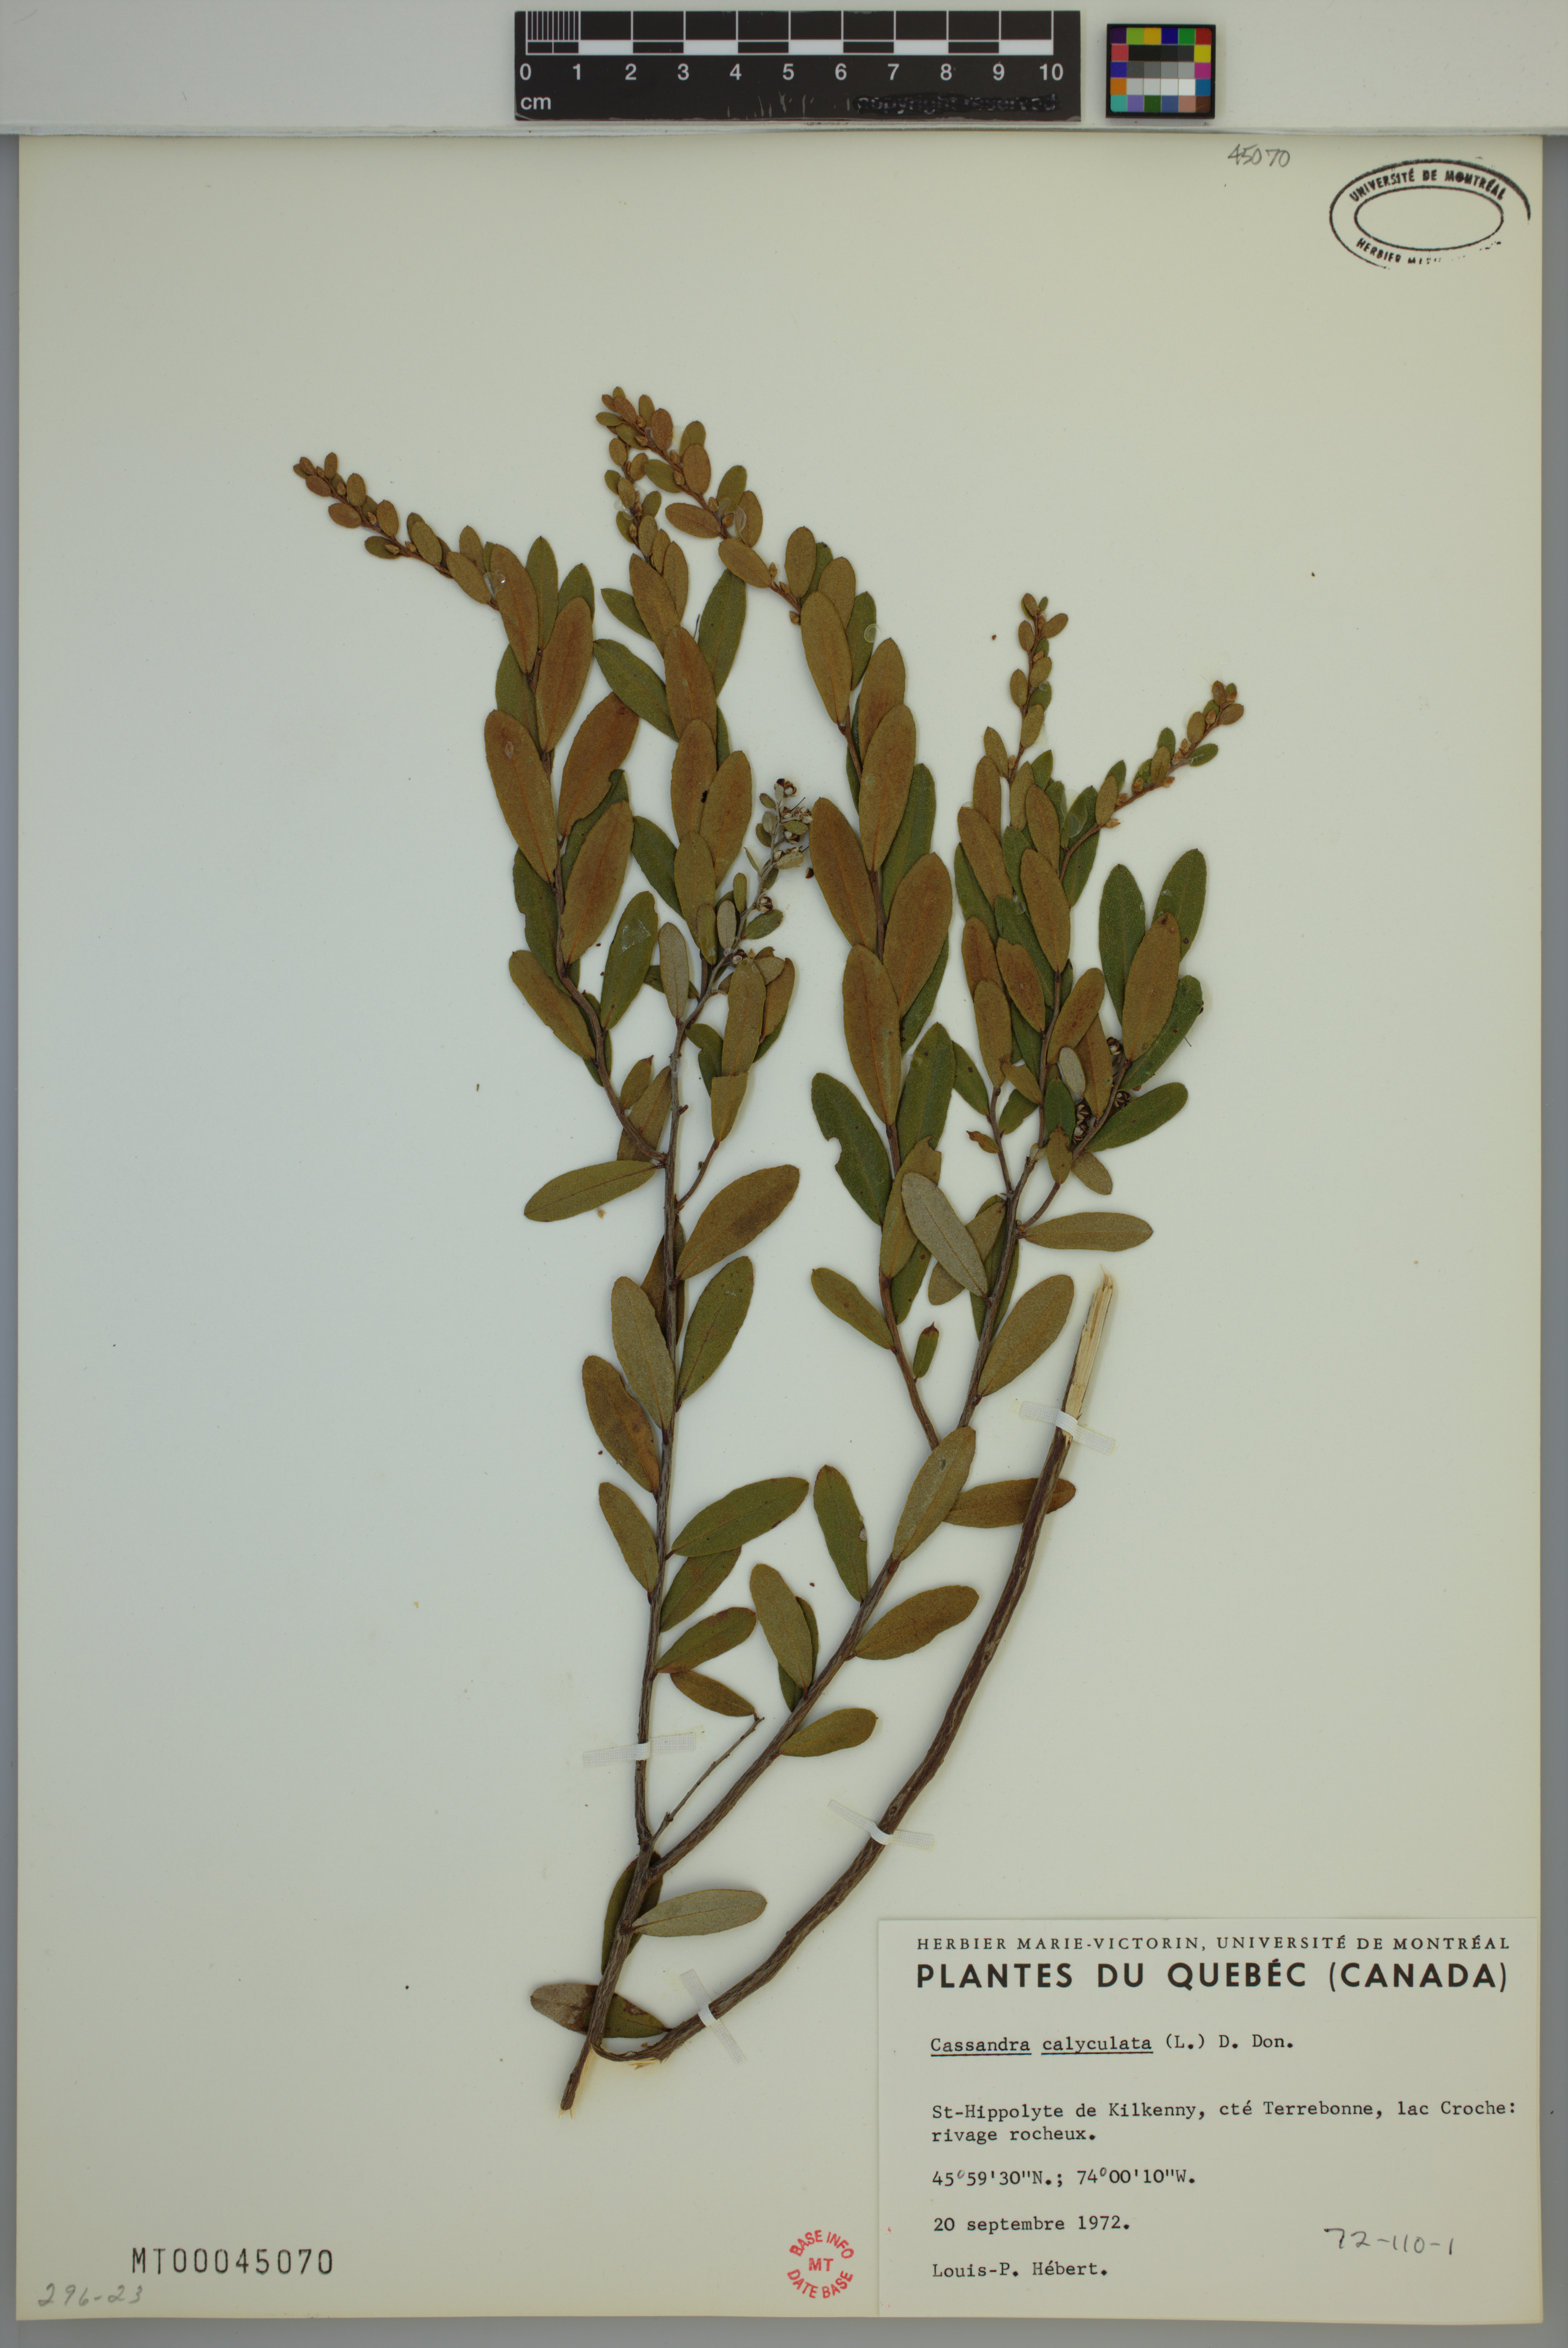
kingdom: Plantae
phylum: Tracheophyta
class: Magnoliopsida
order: Ericales
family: Ericaceae
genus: Chamaedaphne
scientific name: Chamaedaphne calyculata
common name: Leatherleaf
